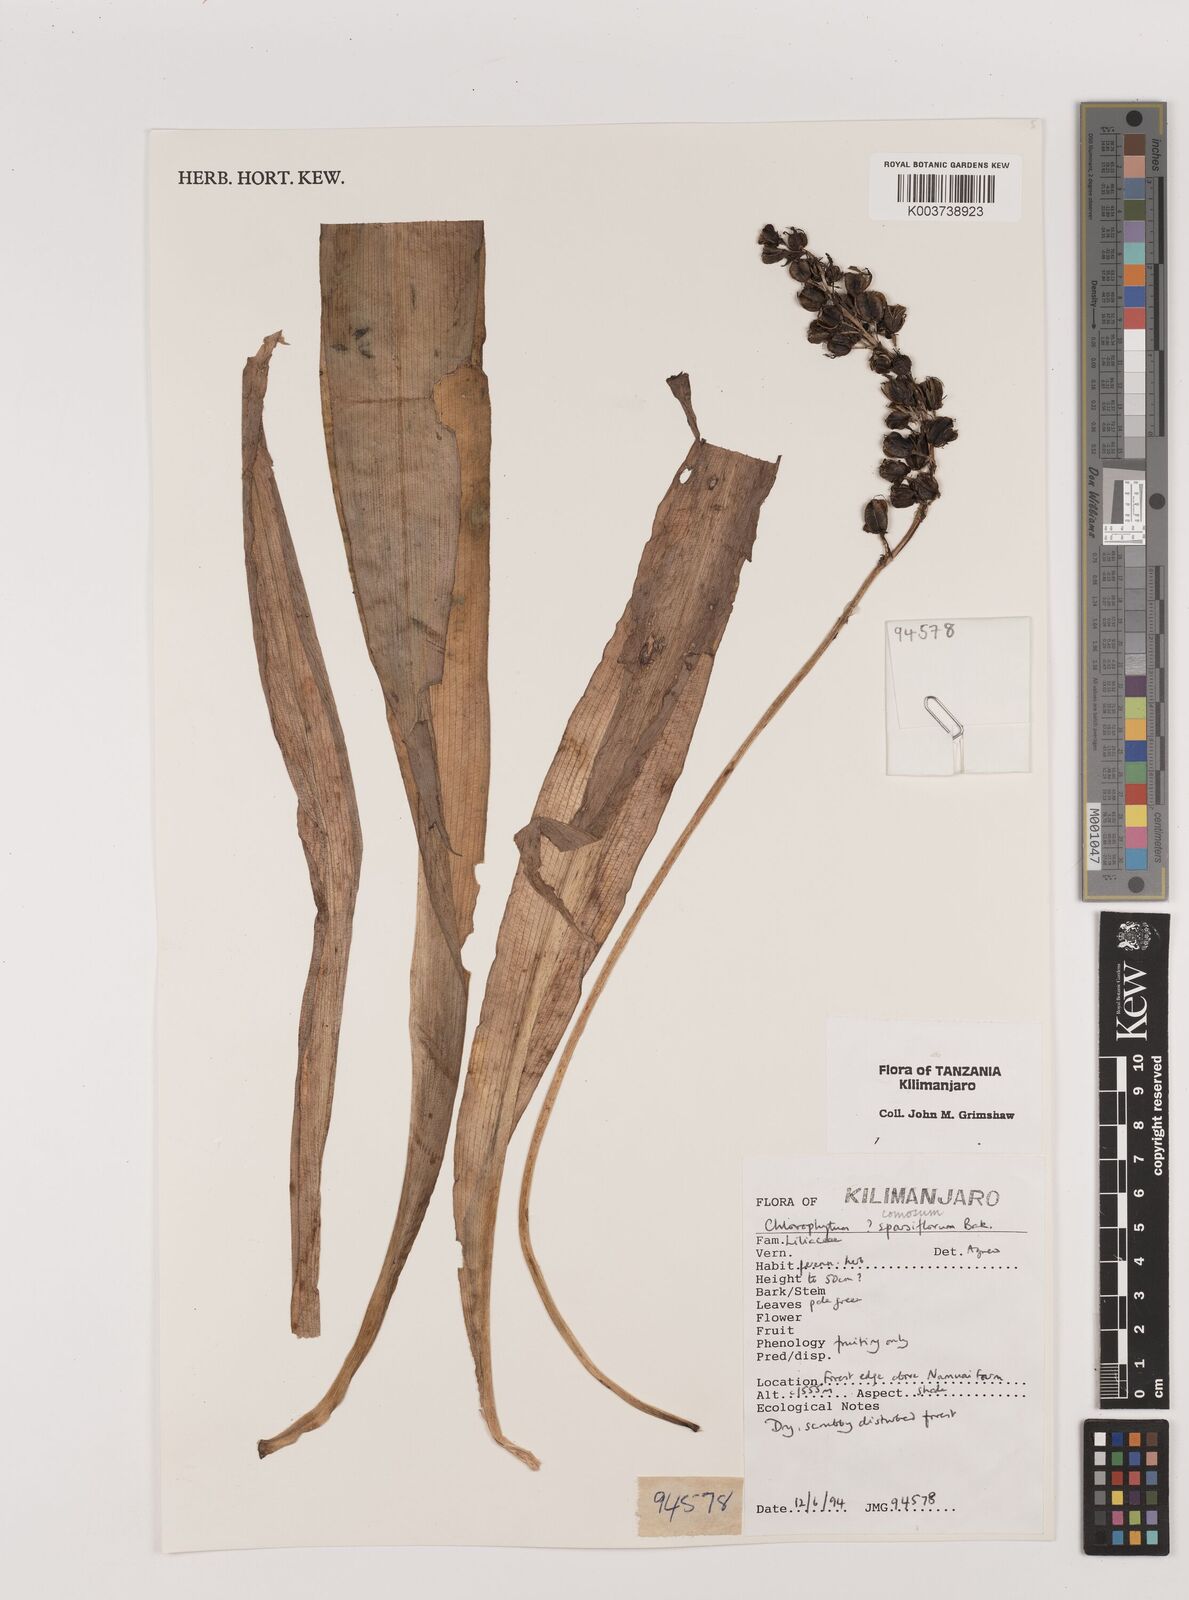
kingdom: Plantae
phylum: Tracheophyta
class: Liliopsida
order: Asparagales
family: Asparagaceae
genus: Chlorophytum
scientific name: Chlorophytum comosum
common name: Spider plant
